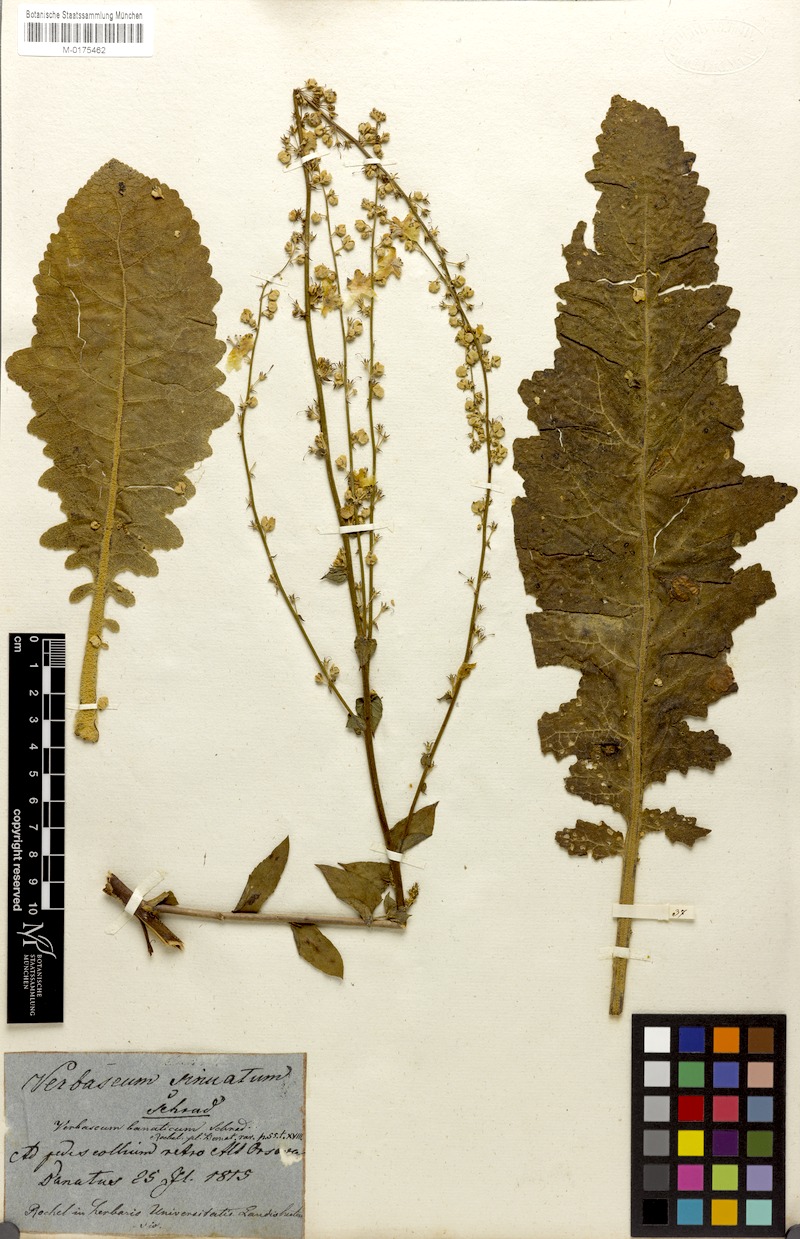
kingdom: Plantae
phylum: Tracheophyta
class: Magnoliopsida
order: Lamiales
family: Scrophulariaceae
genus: Verbascum
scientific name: Verbascum banaticum
